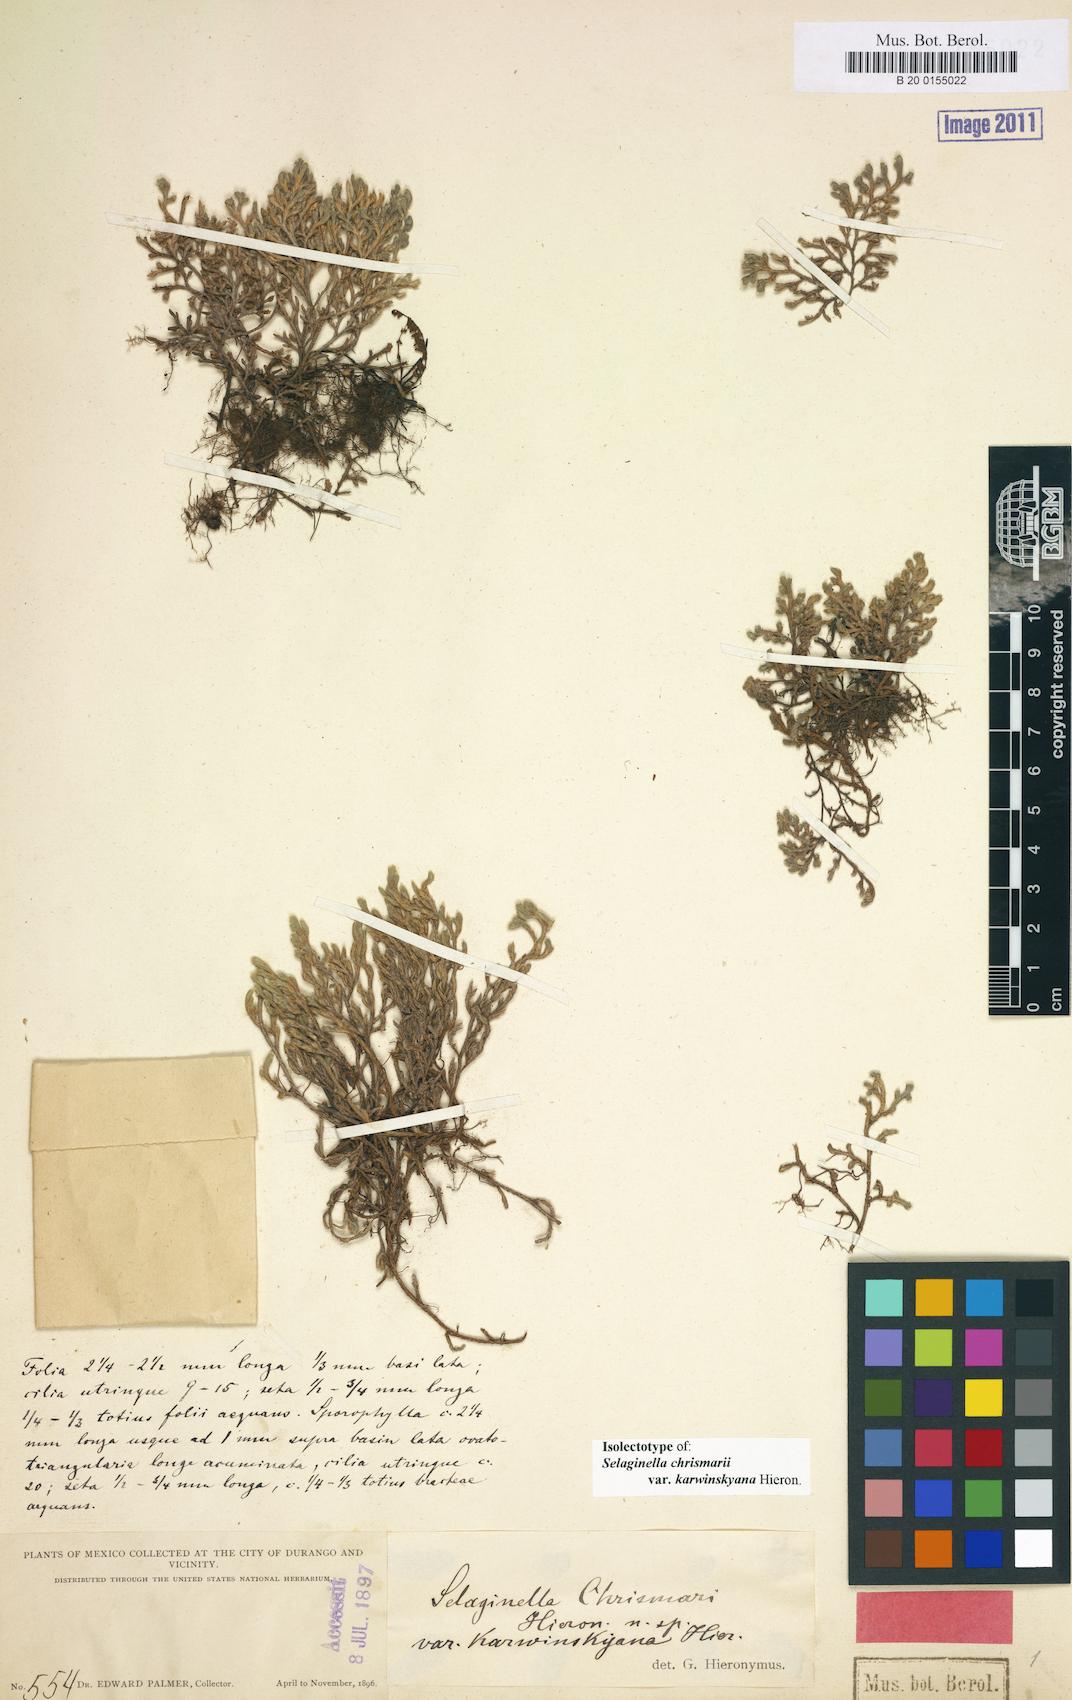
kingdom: Plantae
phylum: Tracheophyta
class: Lycopodiopsida
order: Selaginellales
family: Selaginellaceae
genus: Selaginella
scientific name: Selaginella rupincola
